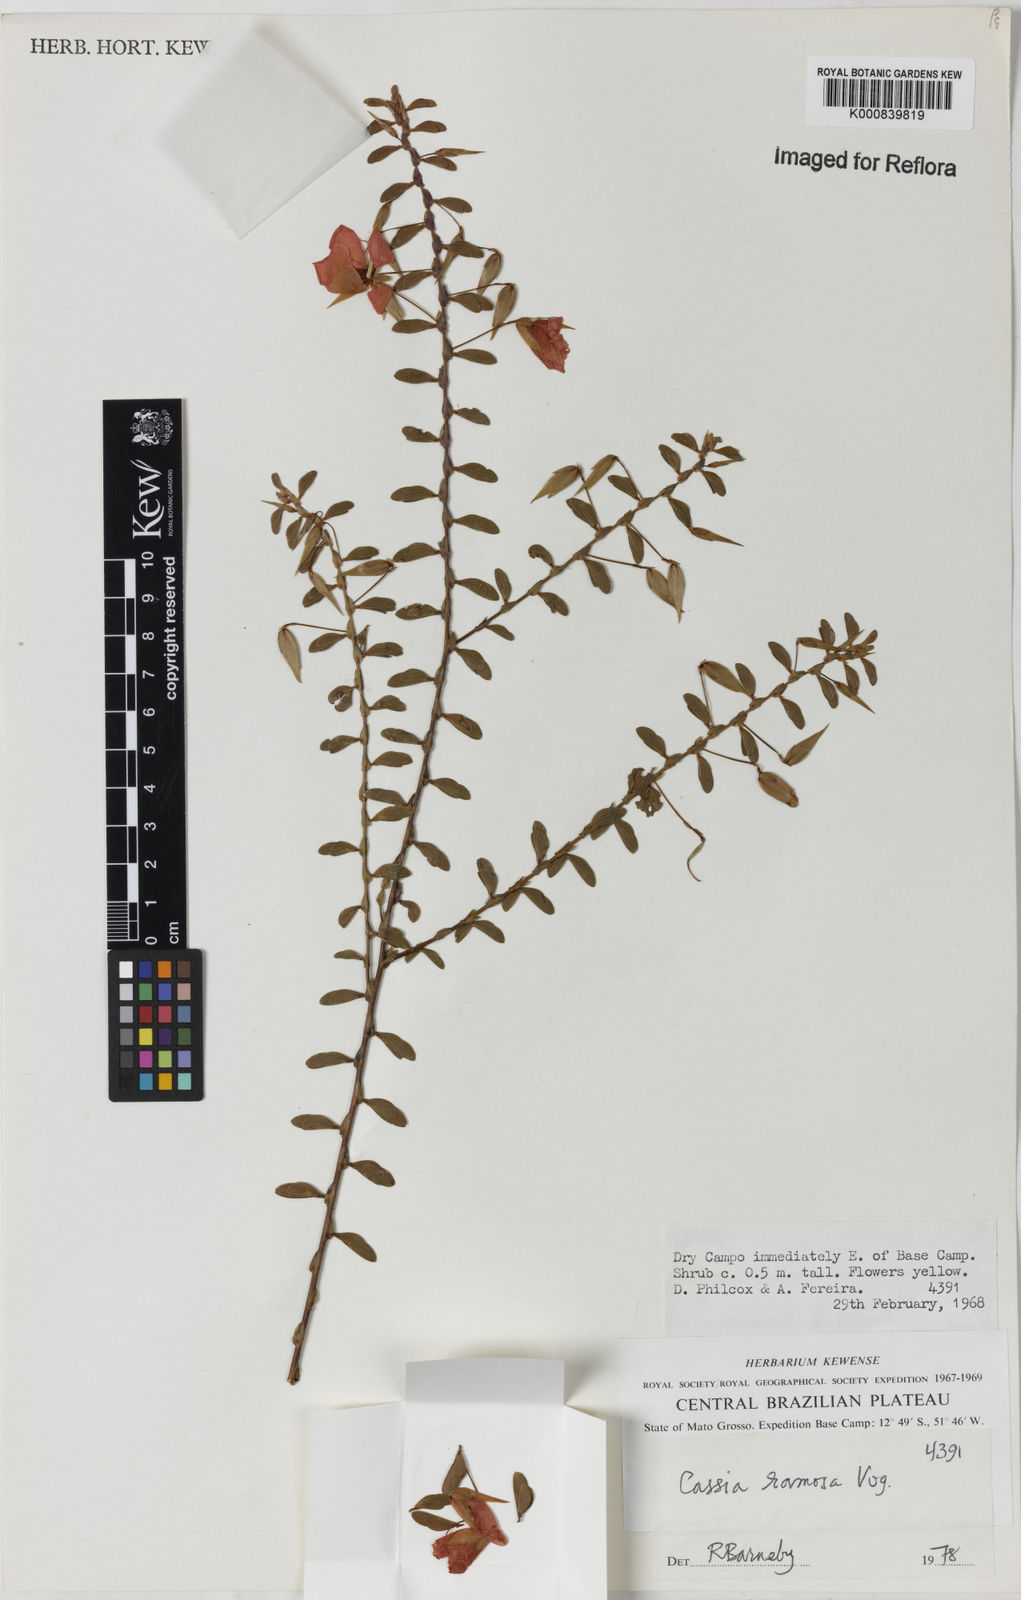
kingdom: Plantae
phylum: Tracheophyta
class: Magnoliopsida
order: Fabales
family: Fabaceae
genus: Chamaecrista
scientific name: Chamaecrista ramosa
